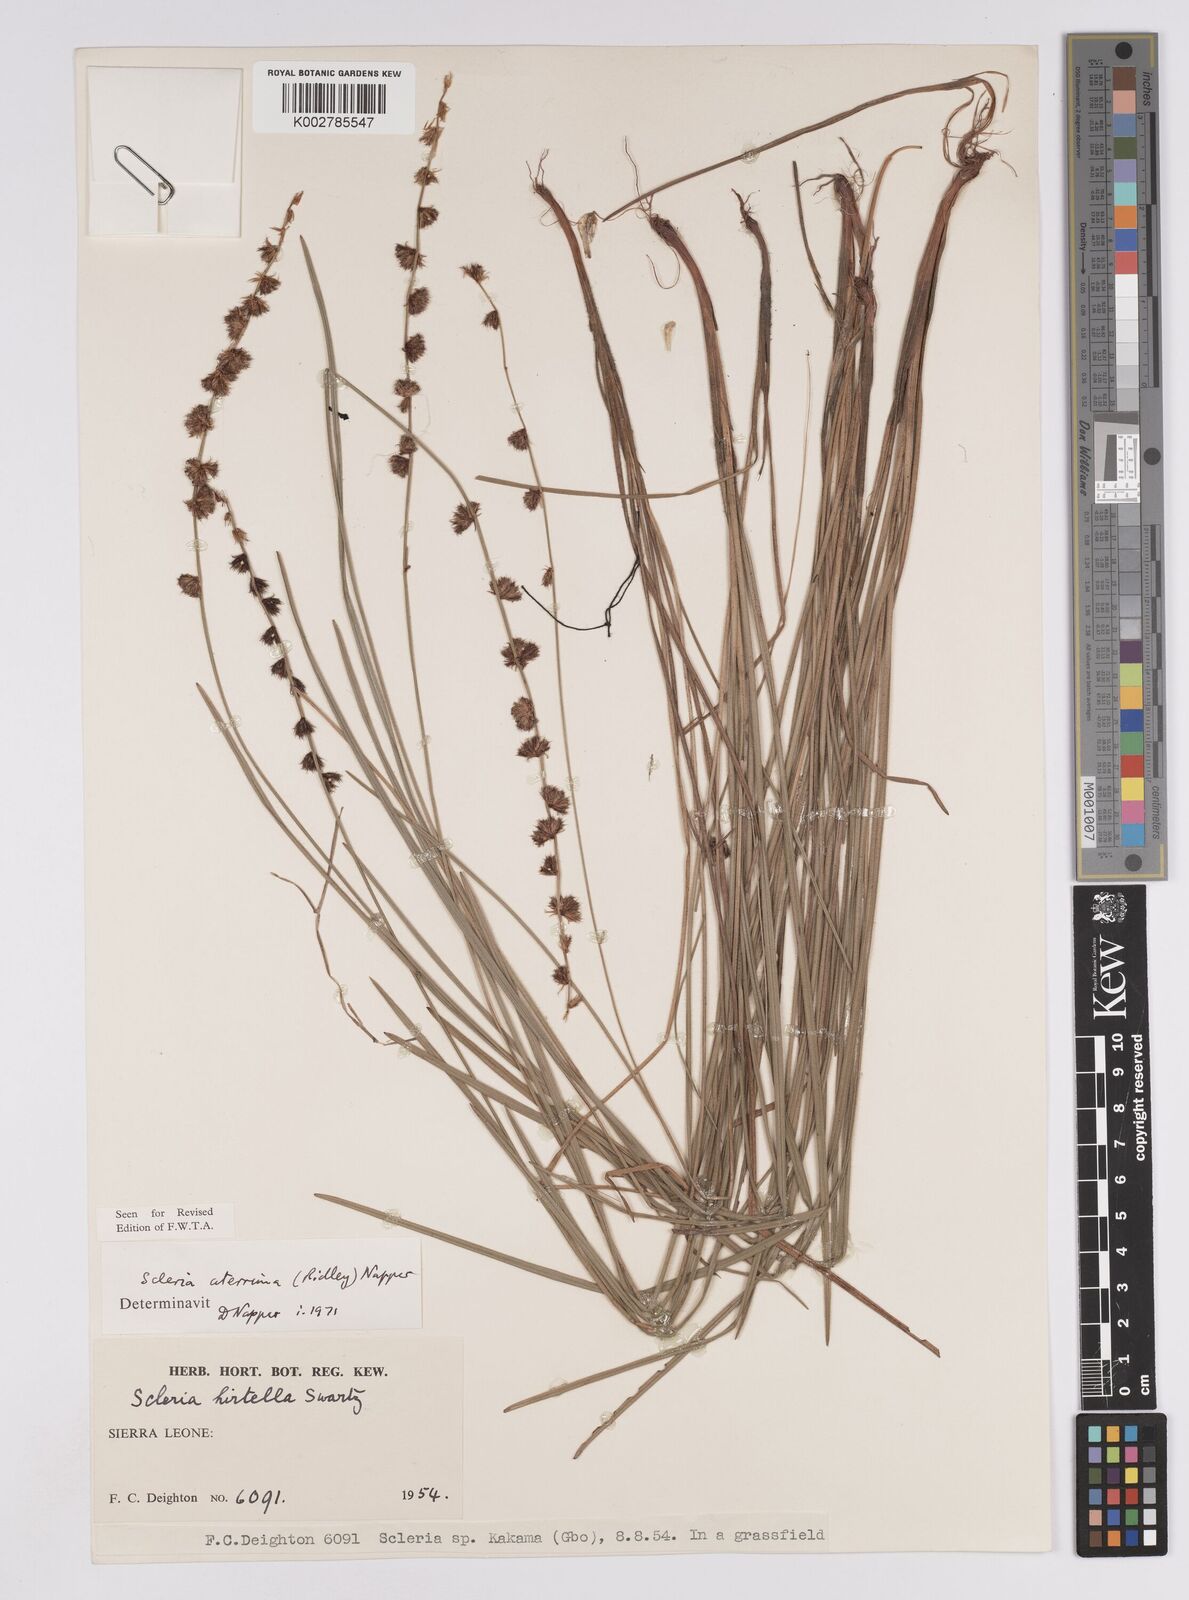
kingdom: Plantae
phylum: Tracheophyta
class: Liliopsida
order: Poales
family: Cyperaceae
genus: Scleria
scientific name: Scleria catophylla
